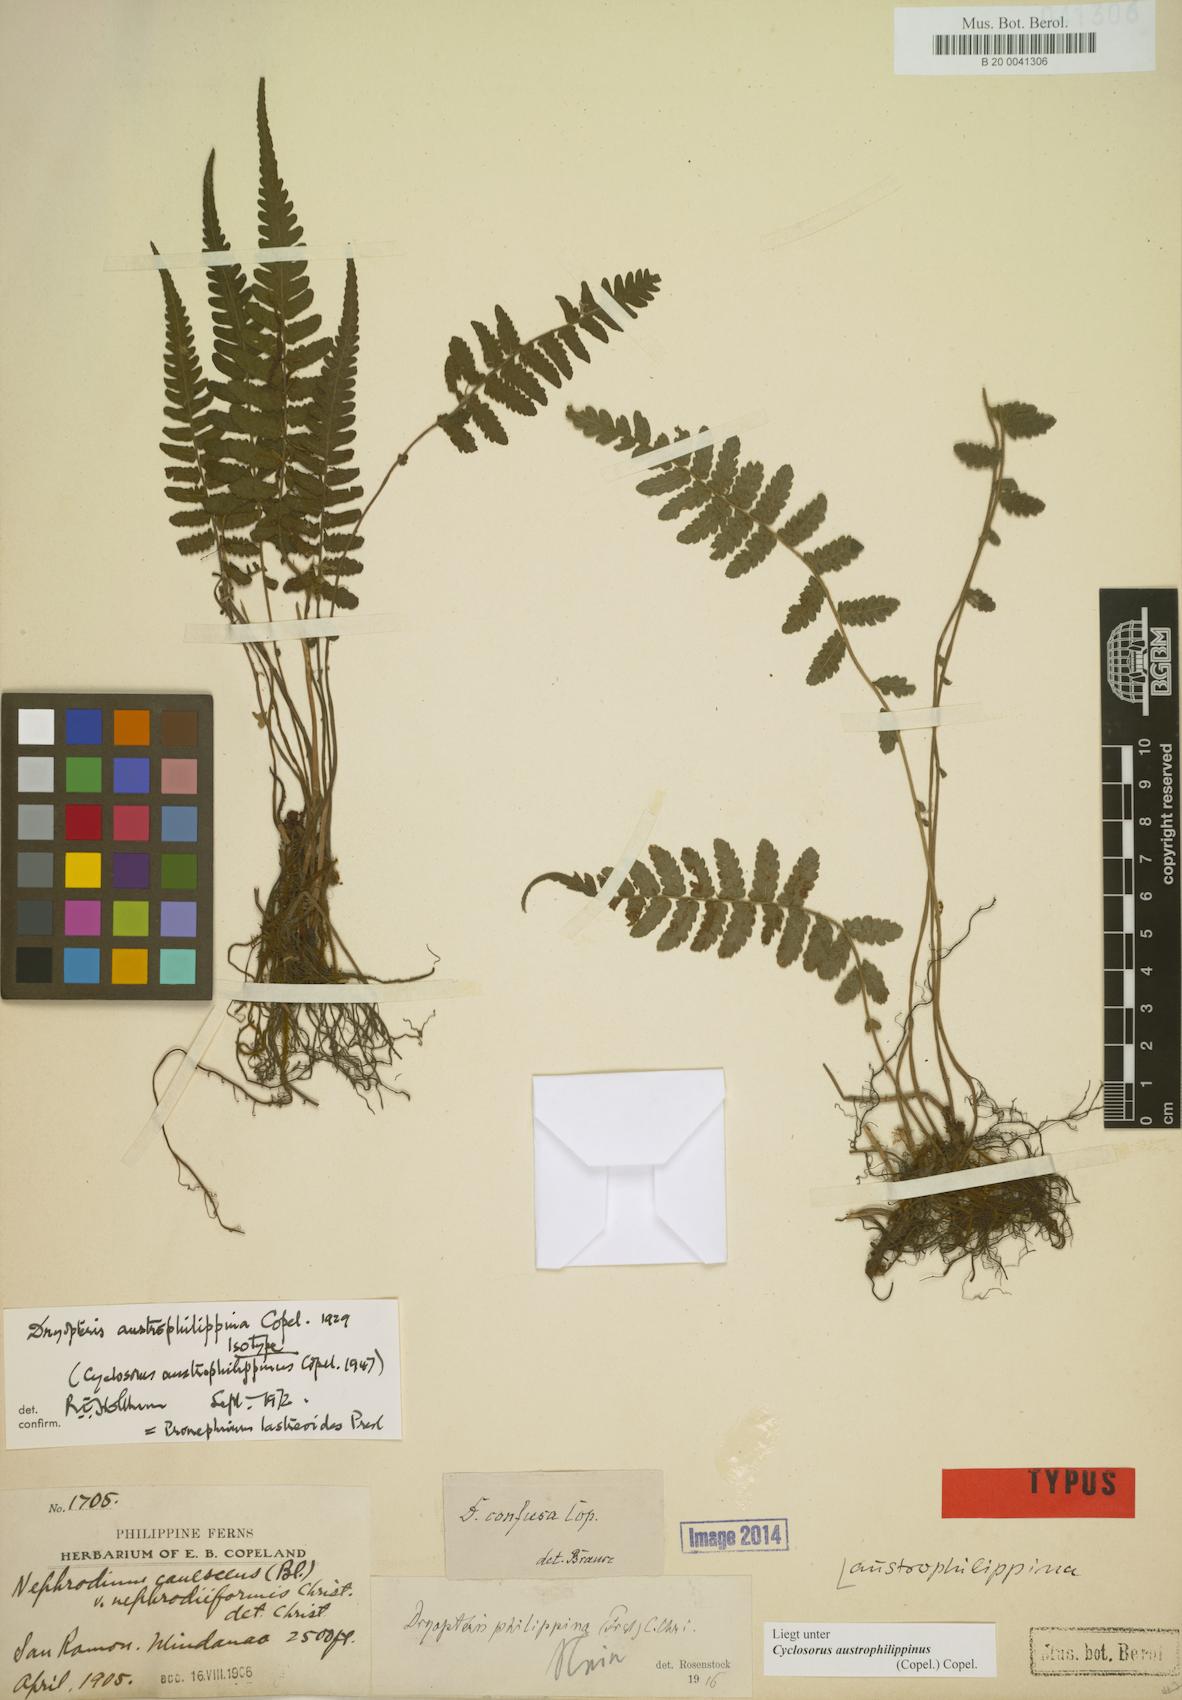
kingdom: Plantae
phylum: Tracheophyta
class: Polypodiopsida
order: Polypodiales
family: Thelypteridaceae
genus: Sphaerostephanos
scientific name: Sphaerostephanos sessilipinna
